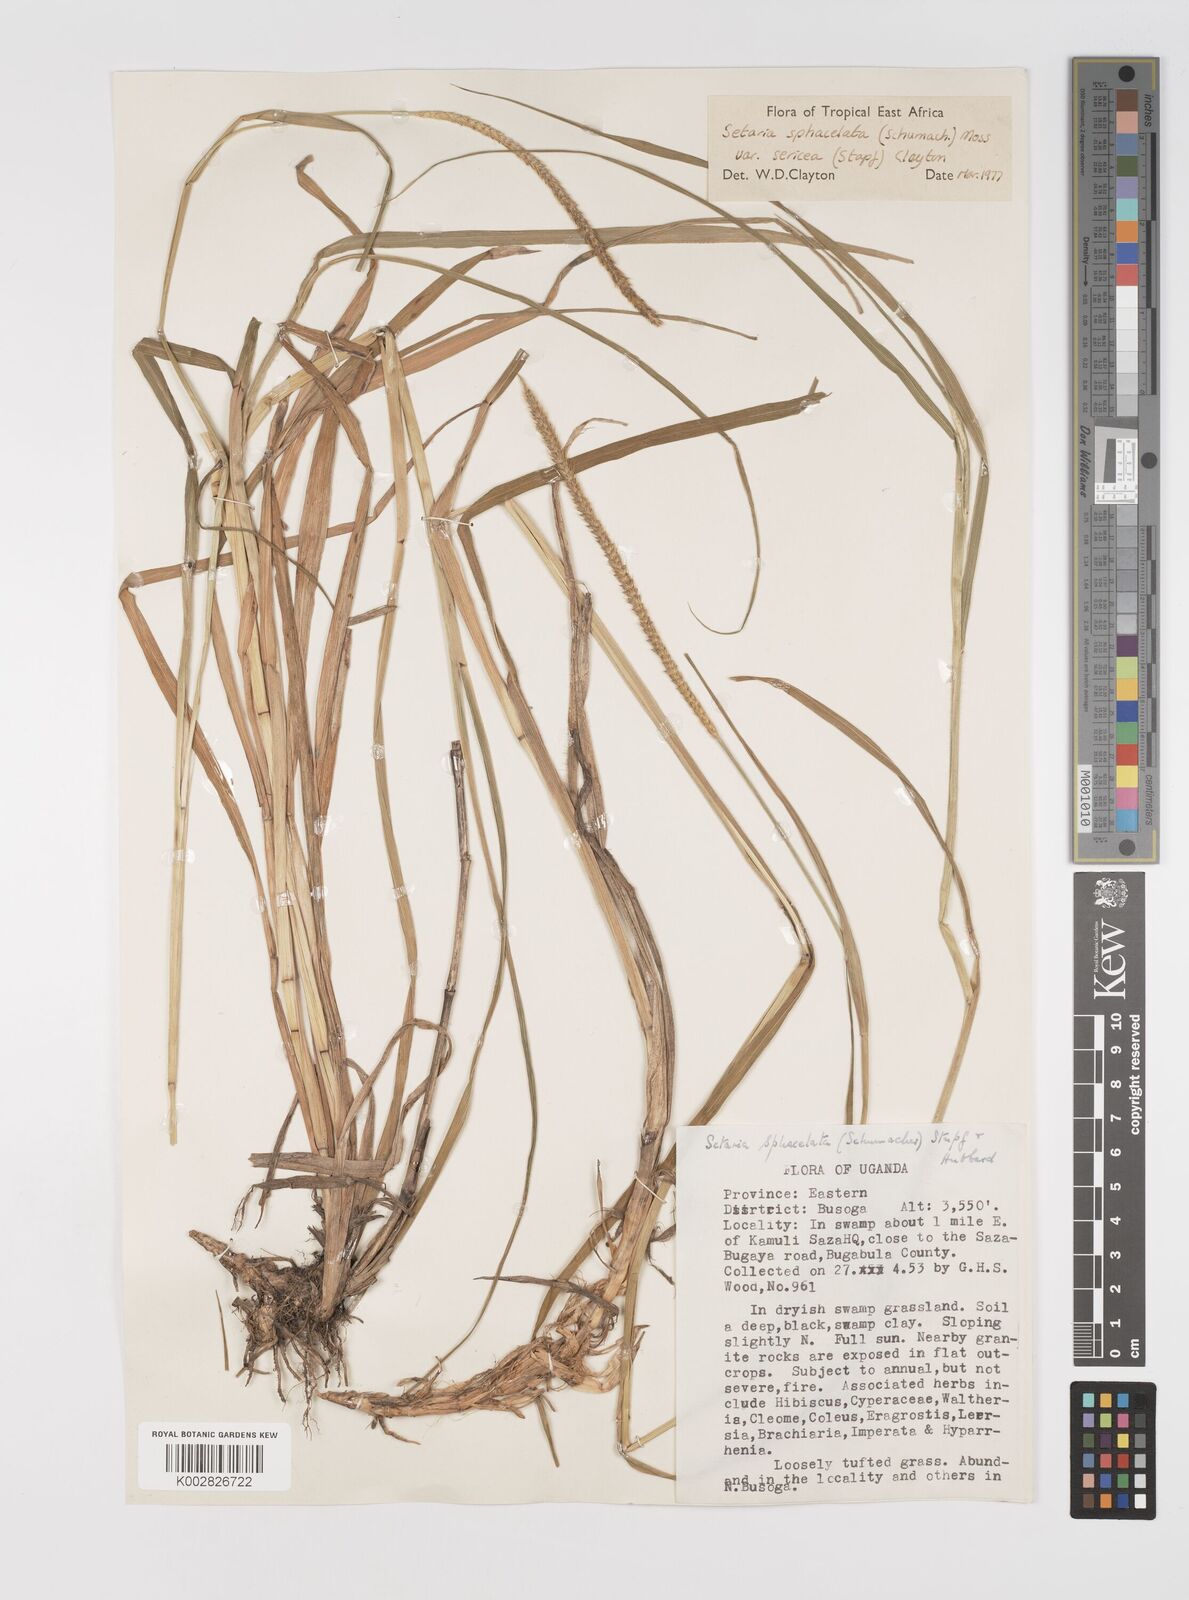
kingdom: Plantae
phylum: Tracheophyta
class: Liliopsida
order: Poales
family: Poaceae
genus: Setaria
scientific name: Setaria sphacelata
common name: African bristlegrass
